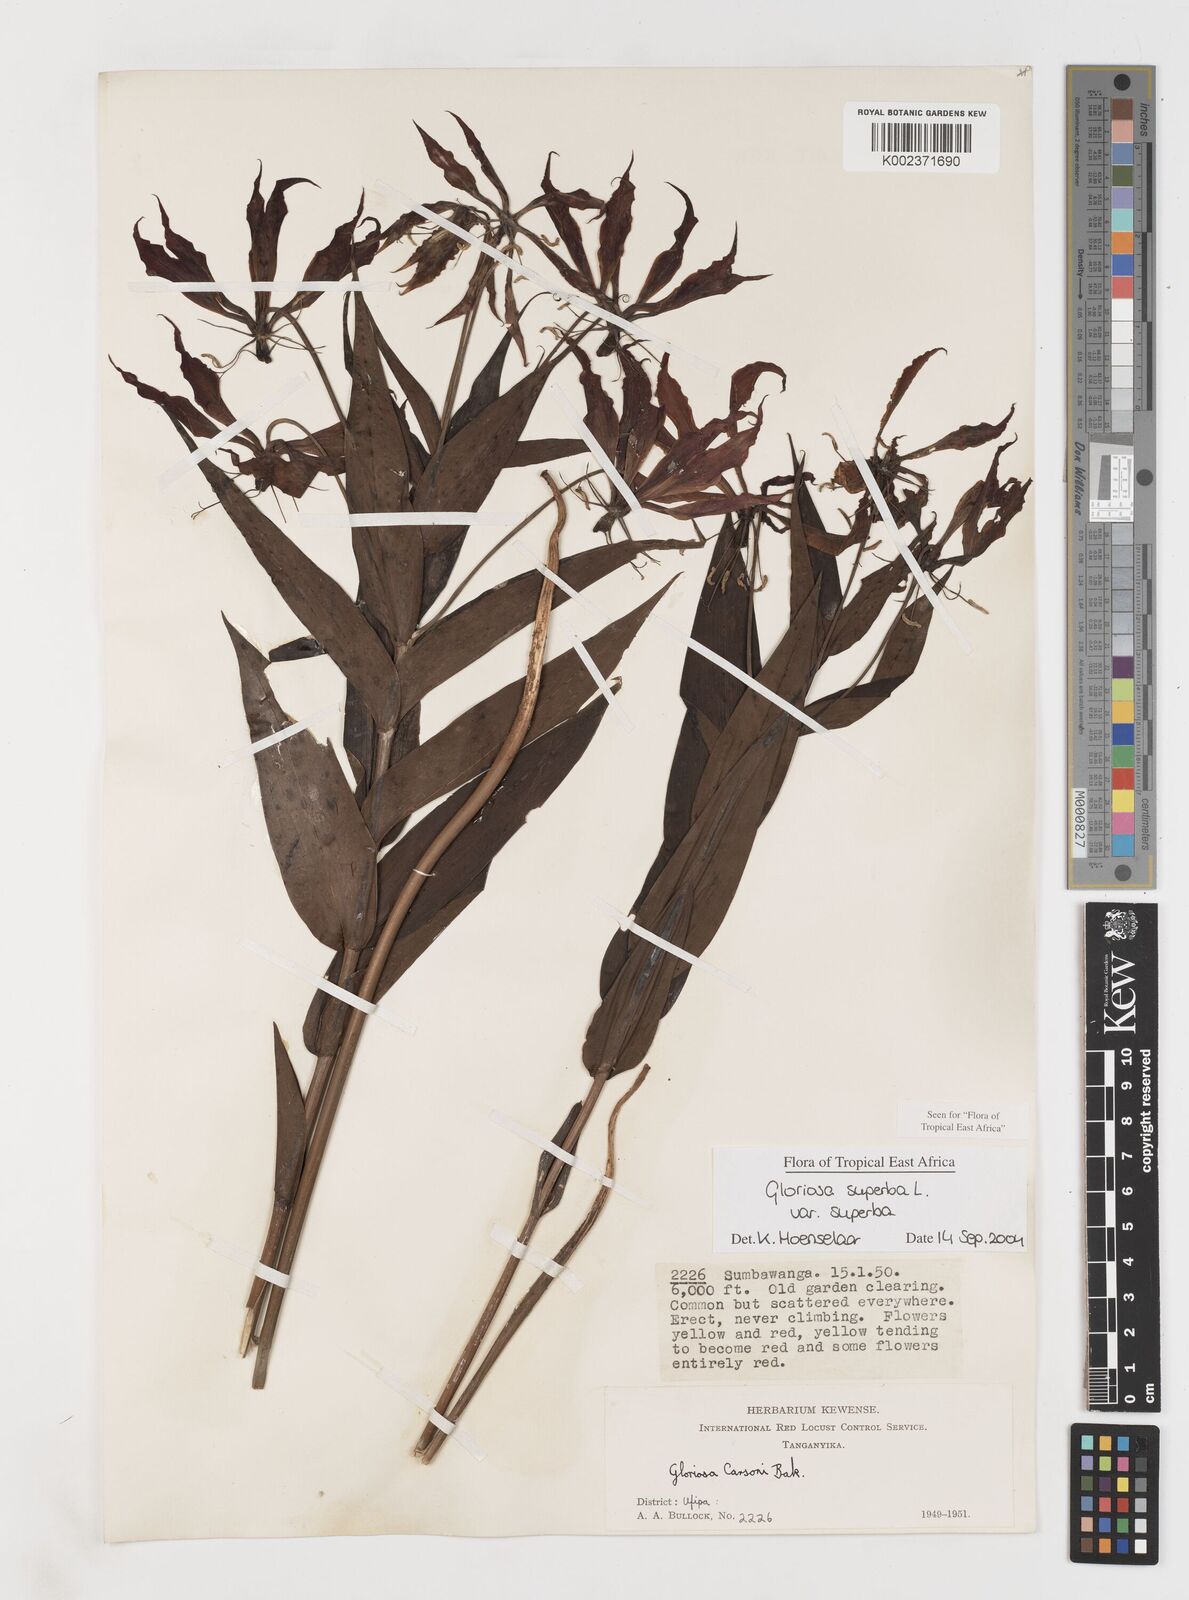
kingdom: Plantae
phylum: Tracheophyta
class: Liliopsida
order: Liliales
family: Colchicaceae
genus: Gloriosa
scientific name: Gloriosa simplex
